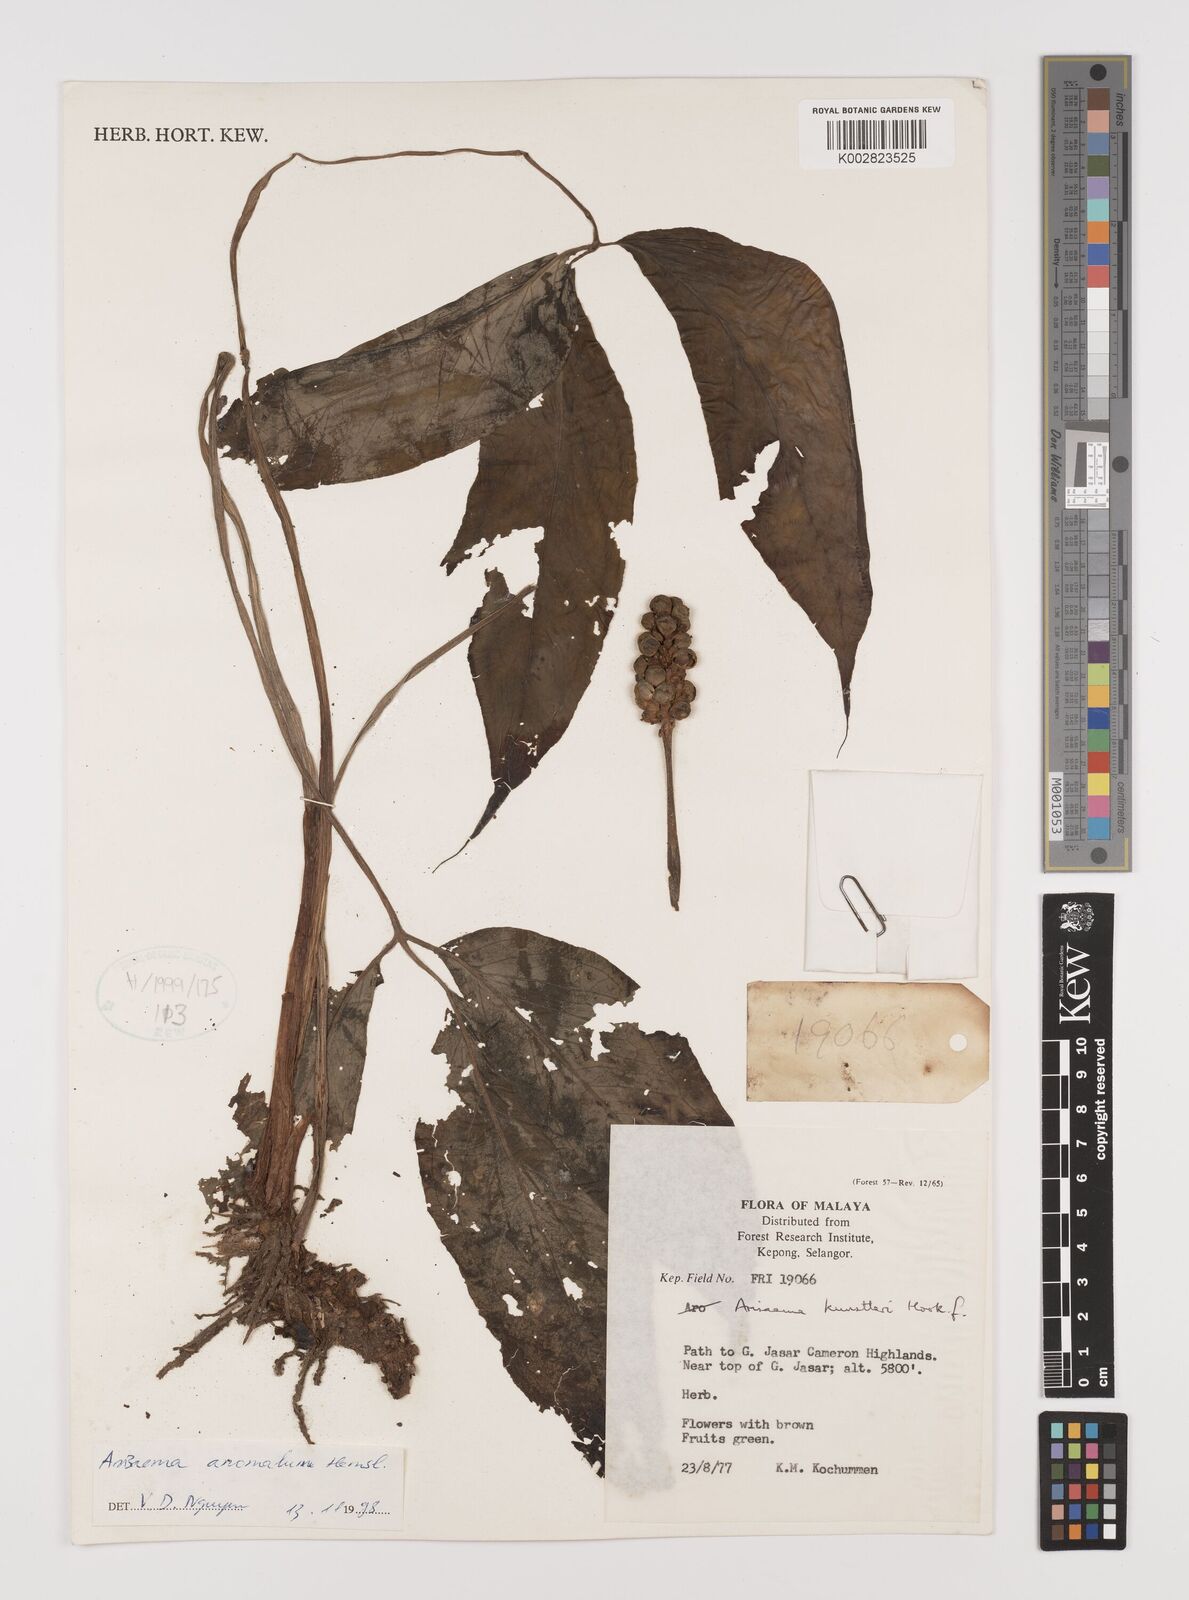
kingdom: Plantae
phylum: Tracheophyta
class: Liliopsida
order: Alismatales
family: Araceae
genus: Arisaema
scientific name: Arisaema anomalum
